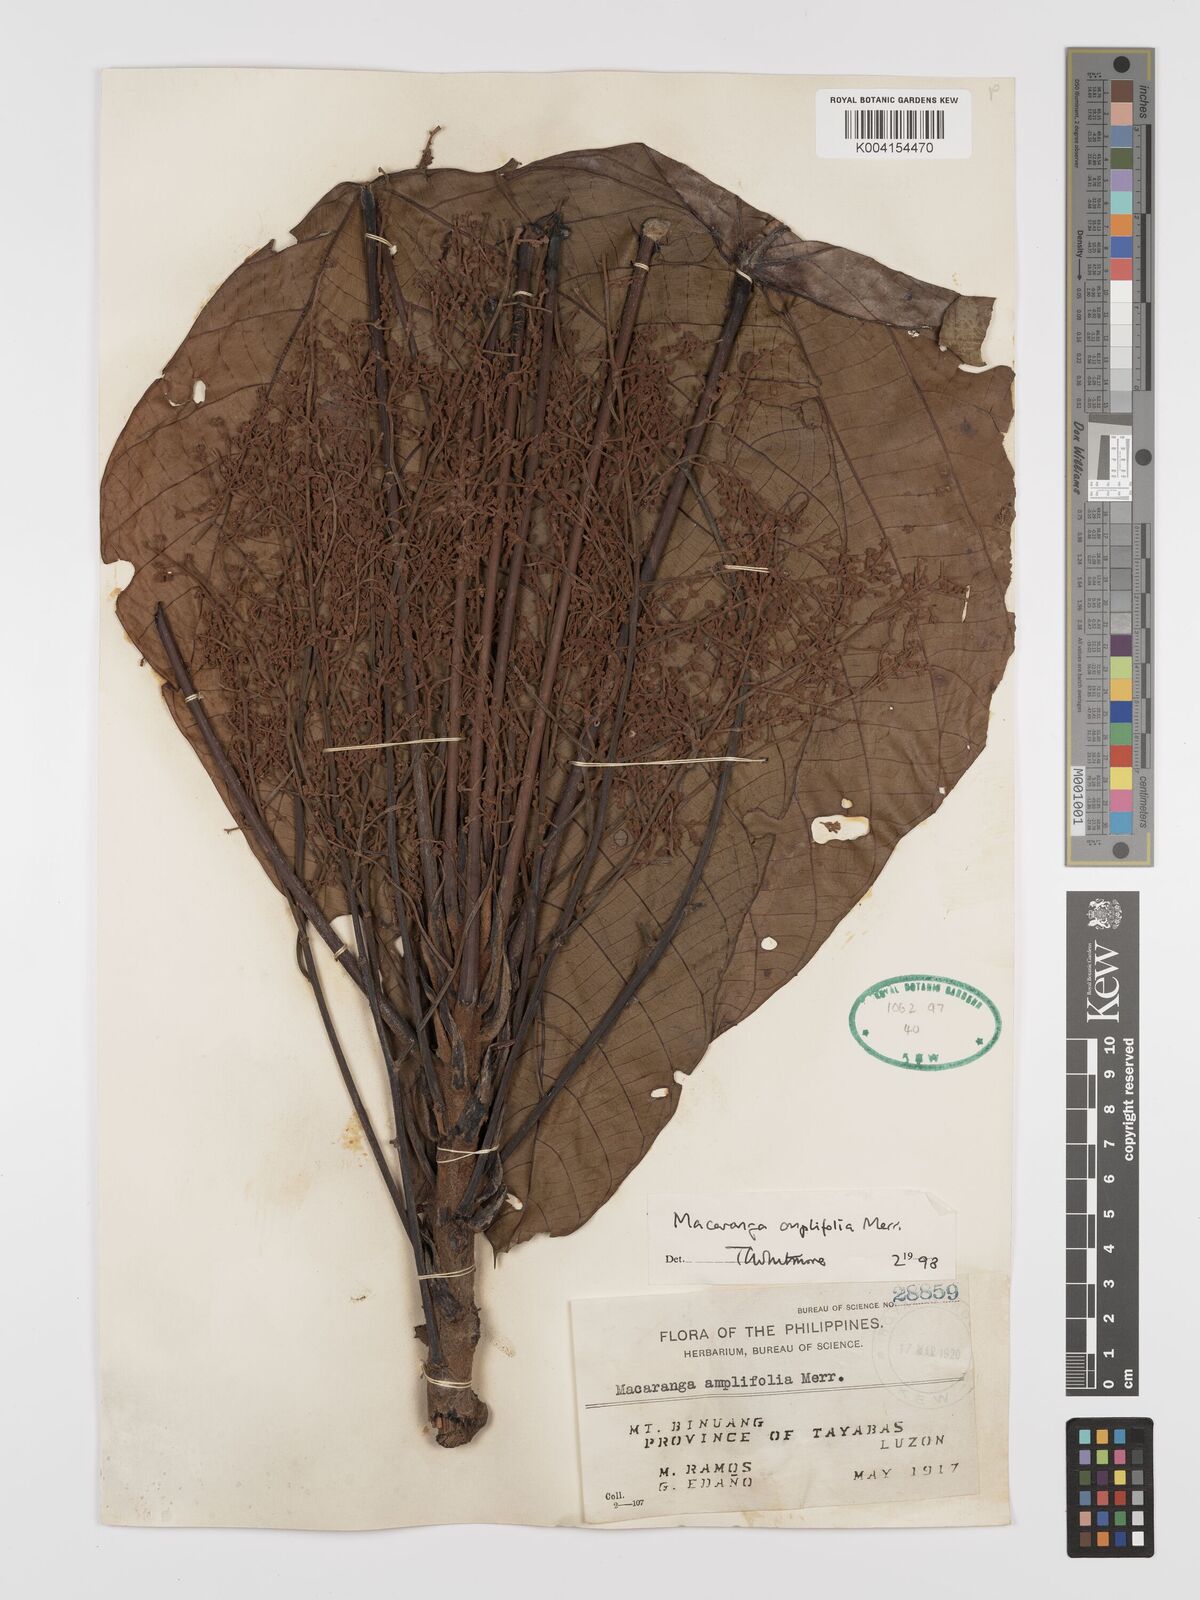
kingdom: Plantae
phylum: Tracheophyta
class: Magnoliopsida
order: Malpighiales
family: Euphorbiaceae
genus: Macaranga
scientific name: Macaranga amplifolia
